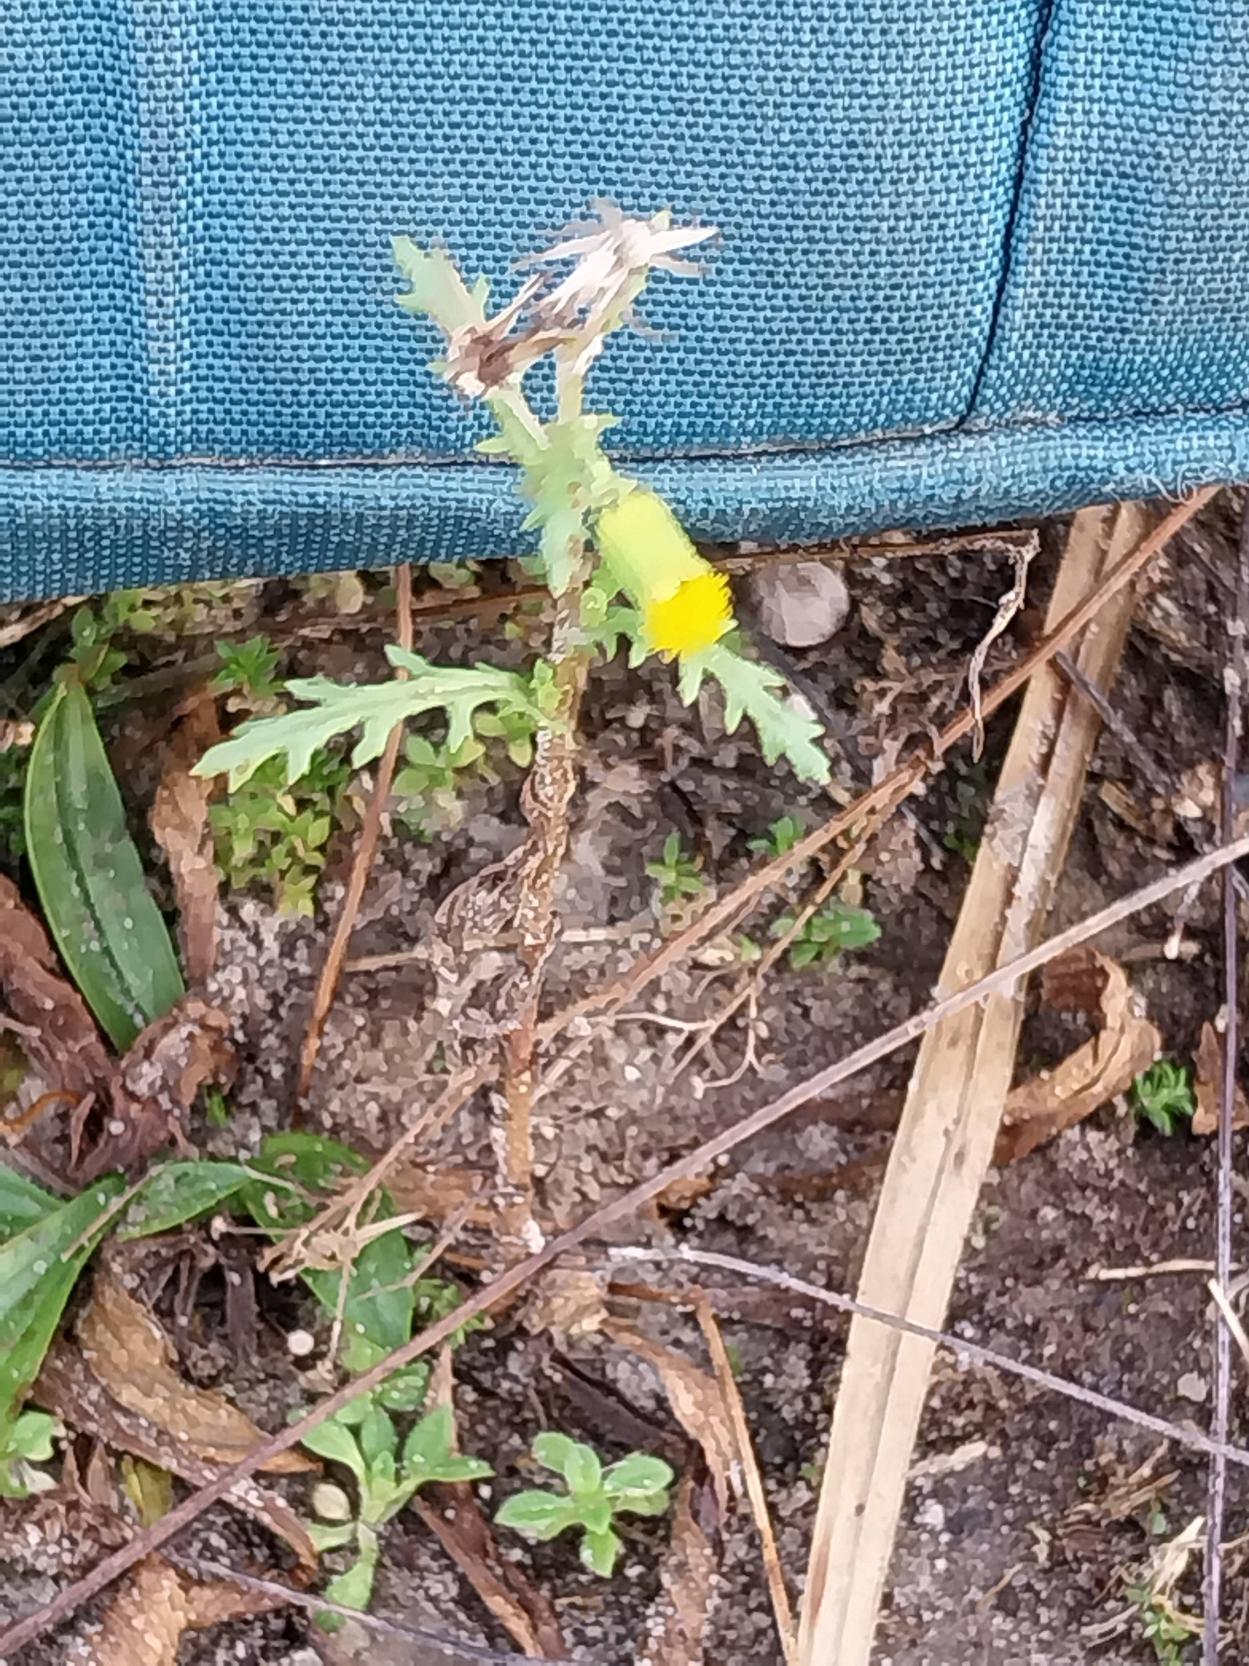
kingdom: Plantae
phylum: Tracheophyta
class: Magnoliopsida
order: Asterales
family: Asteraceae
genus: Senecio
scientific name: Senecio vulgaris
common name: Almindelig brandbæger
